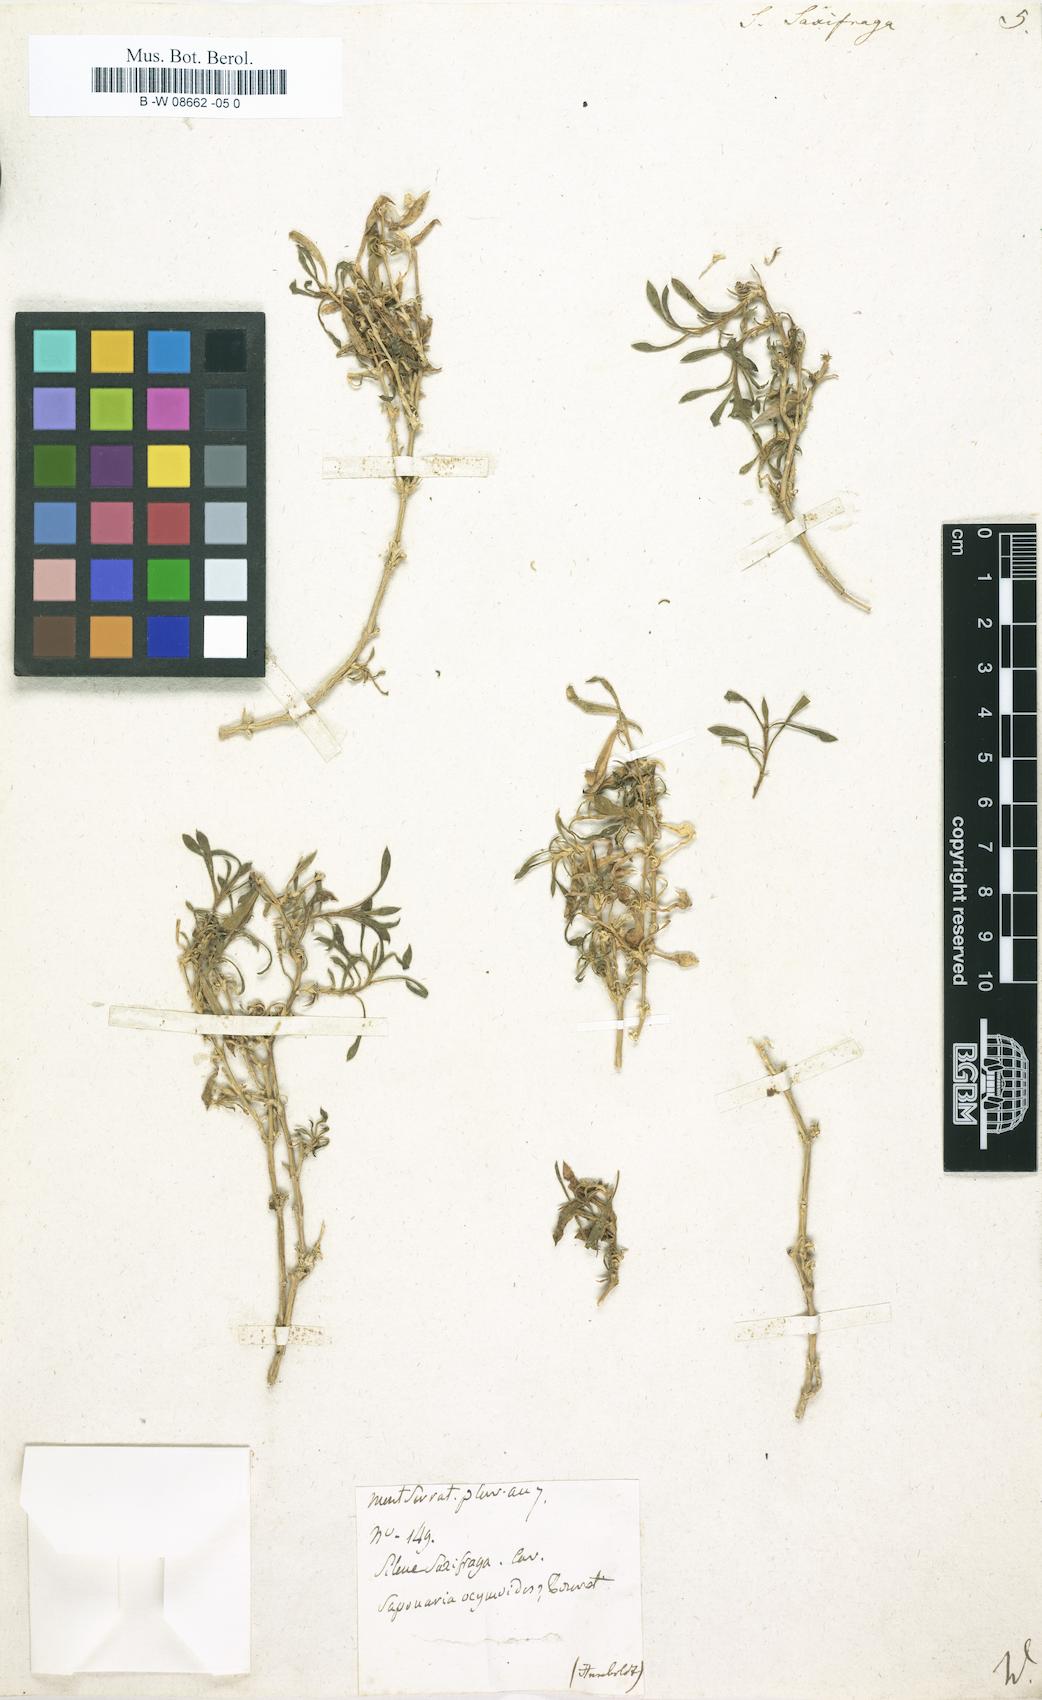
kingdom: Plantae
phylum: Tracheophyta
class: Magnoliopsida
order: Caryophyllales
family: Caryophyllaceae
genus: Silene
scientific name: Silene saxifraga
